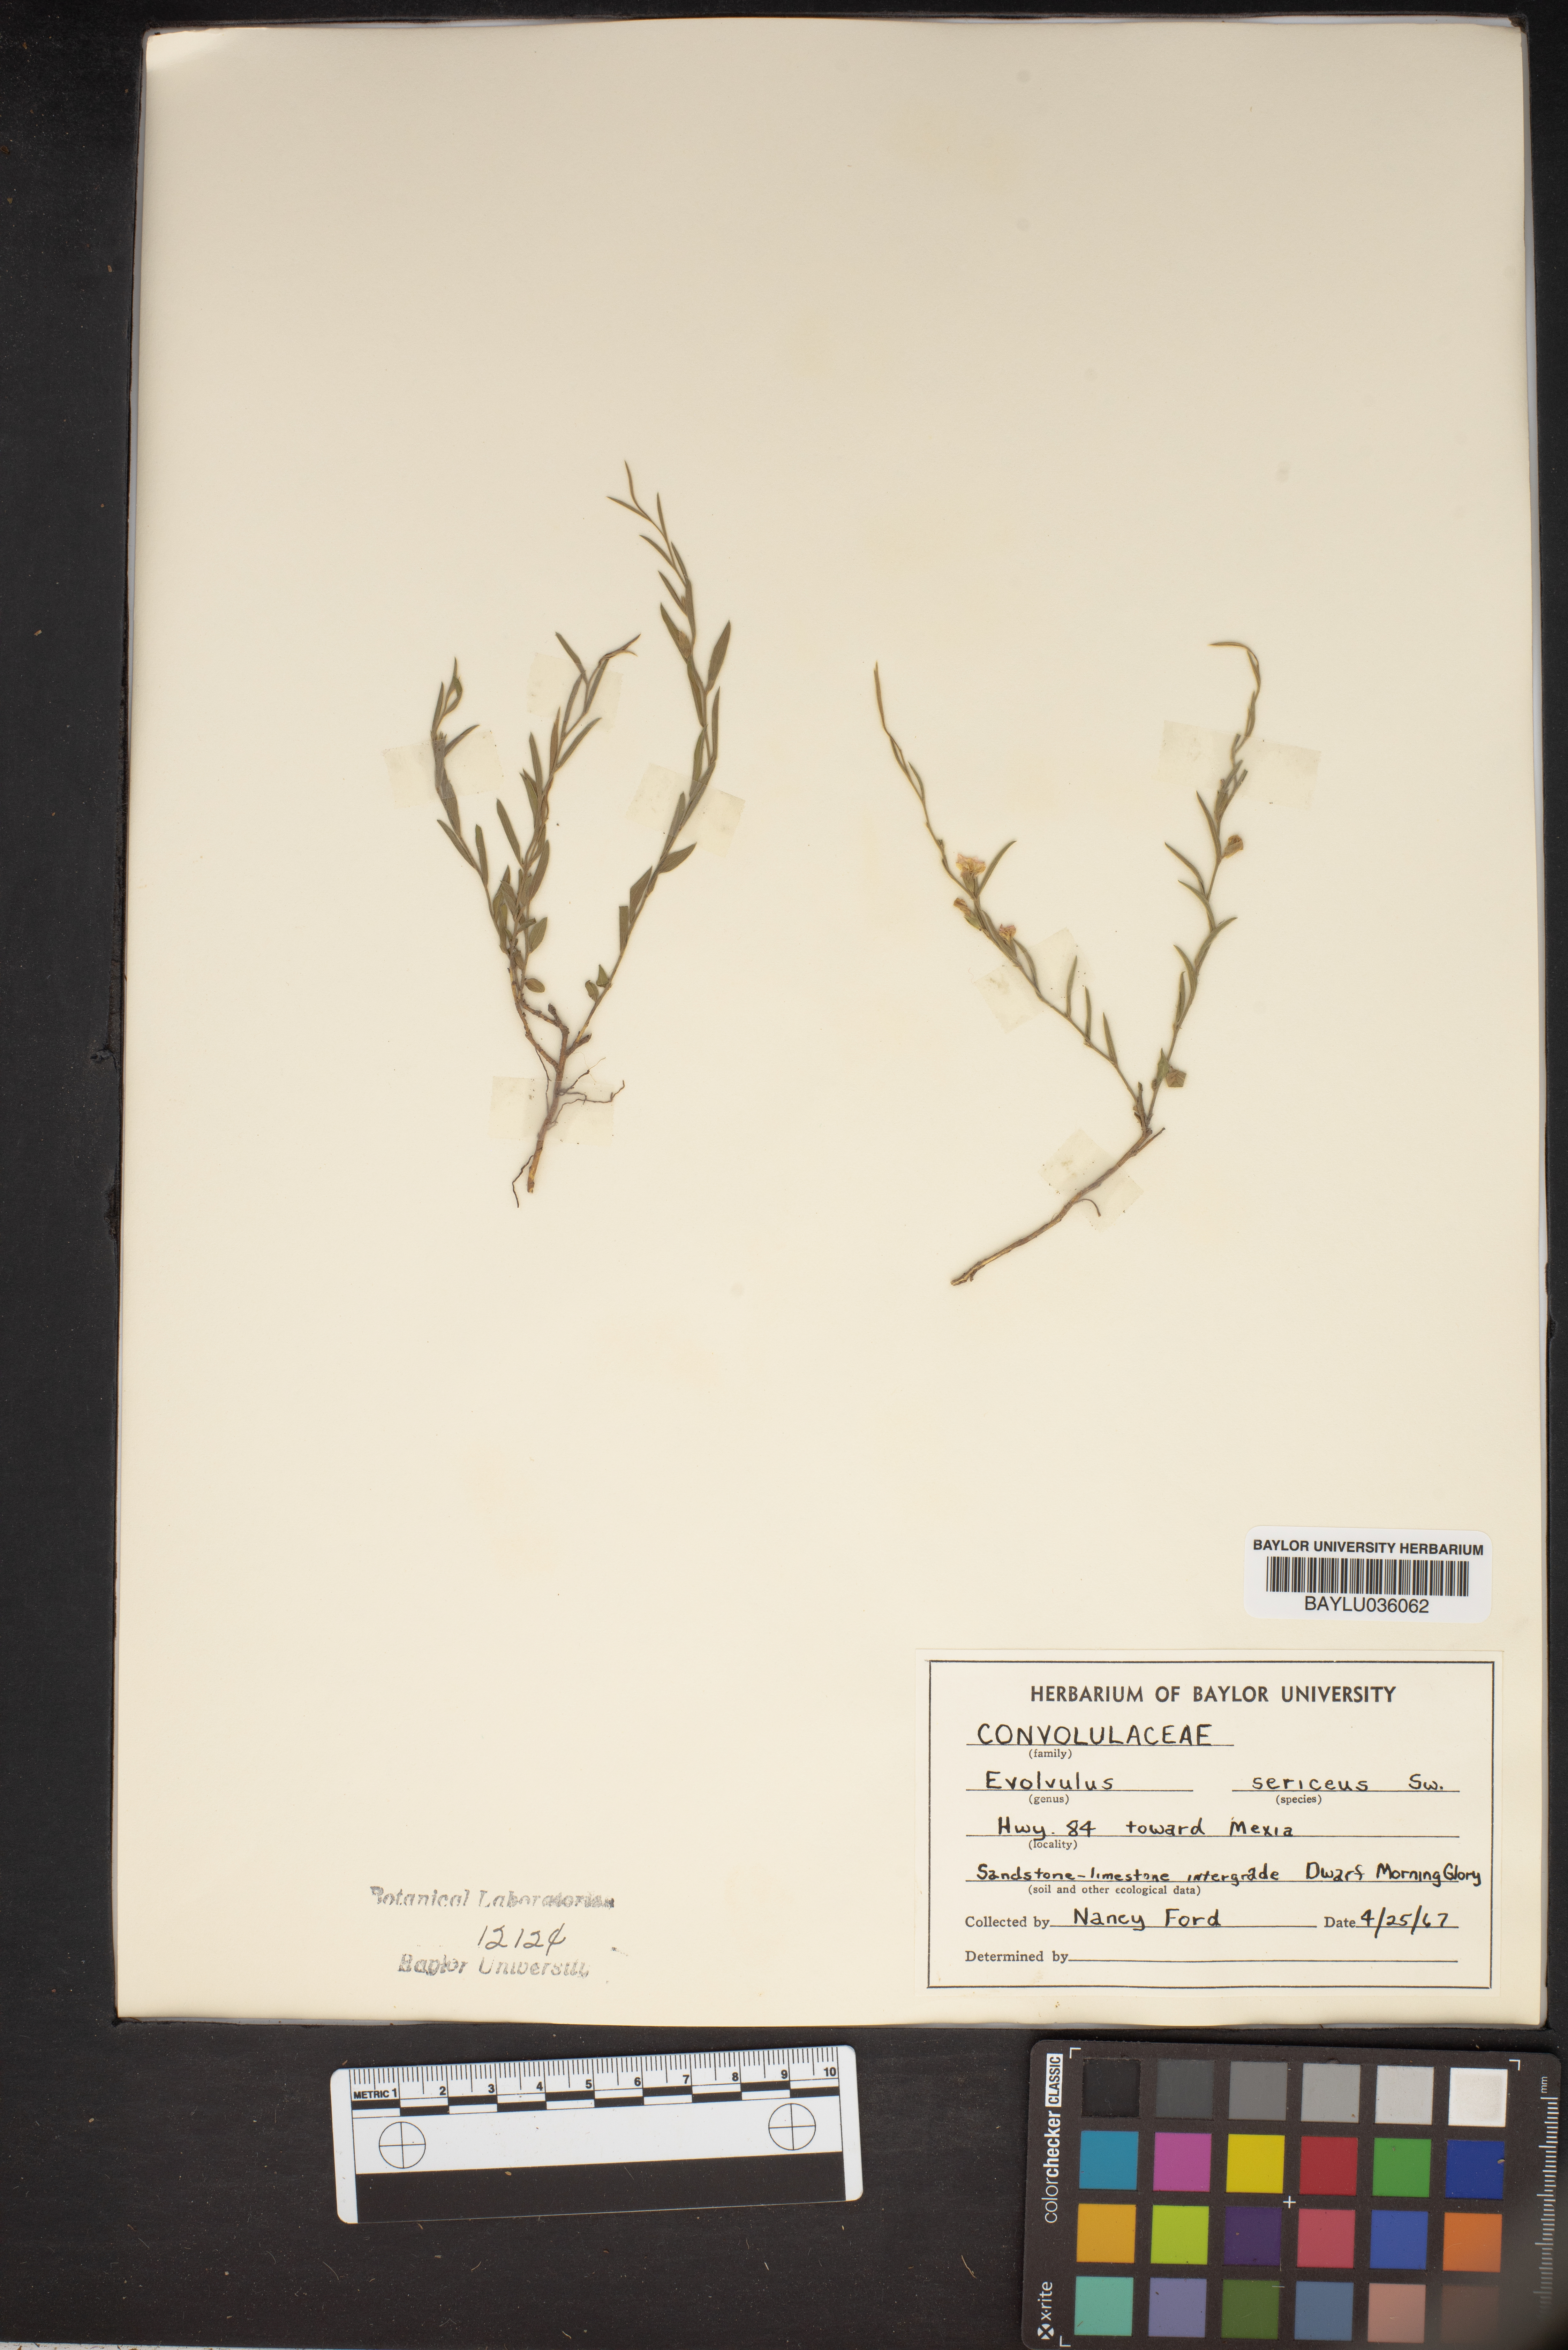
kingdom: Plantae
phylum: Tracheophyta
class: Magnoliopsida
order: Solanales
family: Convolvulaceae
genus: Evolvulus
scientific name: Evolvulus sericeus
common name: Blue dots
